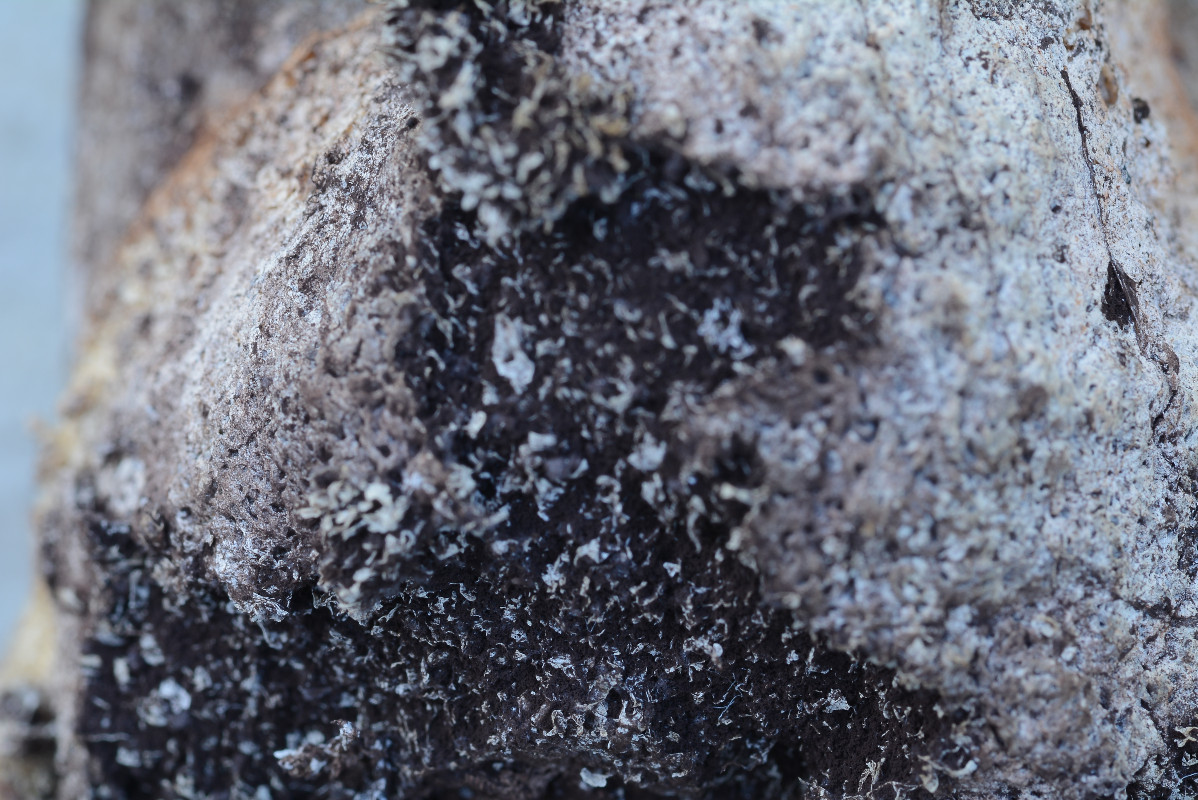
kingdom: Protozoa
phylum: Mycetozoa
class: Myxomycetes
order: Physarales
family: Physaraceae
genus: Fuligo
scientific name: Fuligo septica
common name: Dog vomit slime mold
